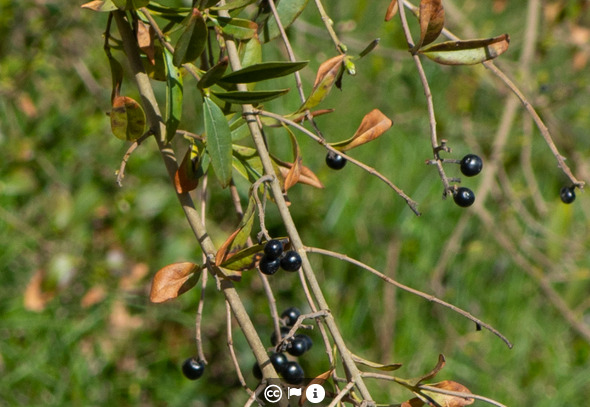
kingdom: Plantae
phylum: Tracheophyta
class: Magnoliopsida
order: Lamiales
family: Oleaceae
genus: Ligustrum
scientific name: Ligustrum vulgare
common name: Liguster
